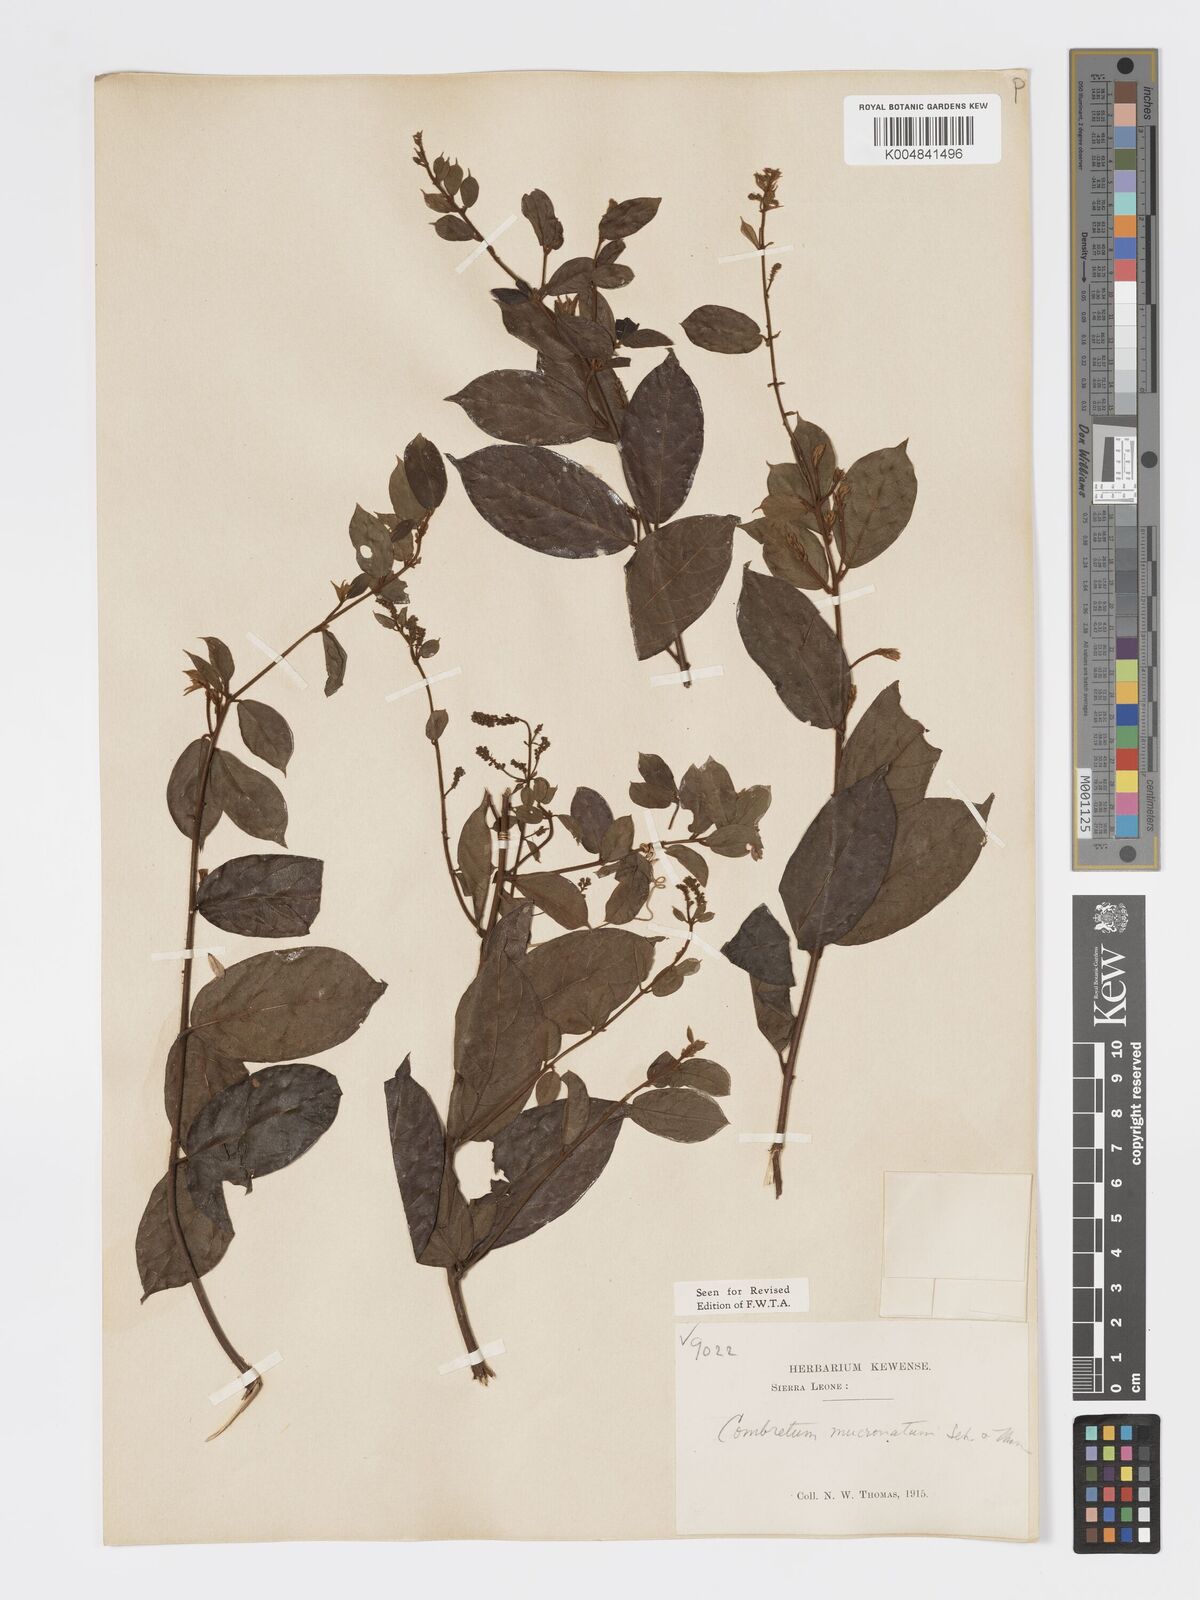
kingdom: Plantae
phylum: Tracheophyta
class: Magnoliopsida
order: Myrtales
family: Combretaceae
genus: Combretum
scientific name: Combretum mucronatum
